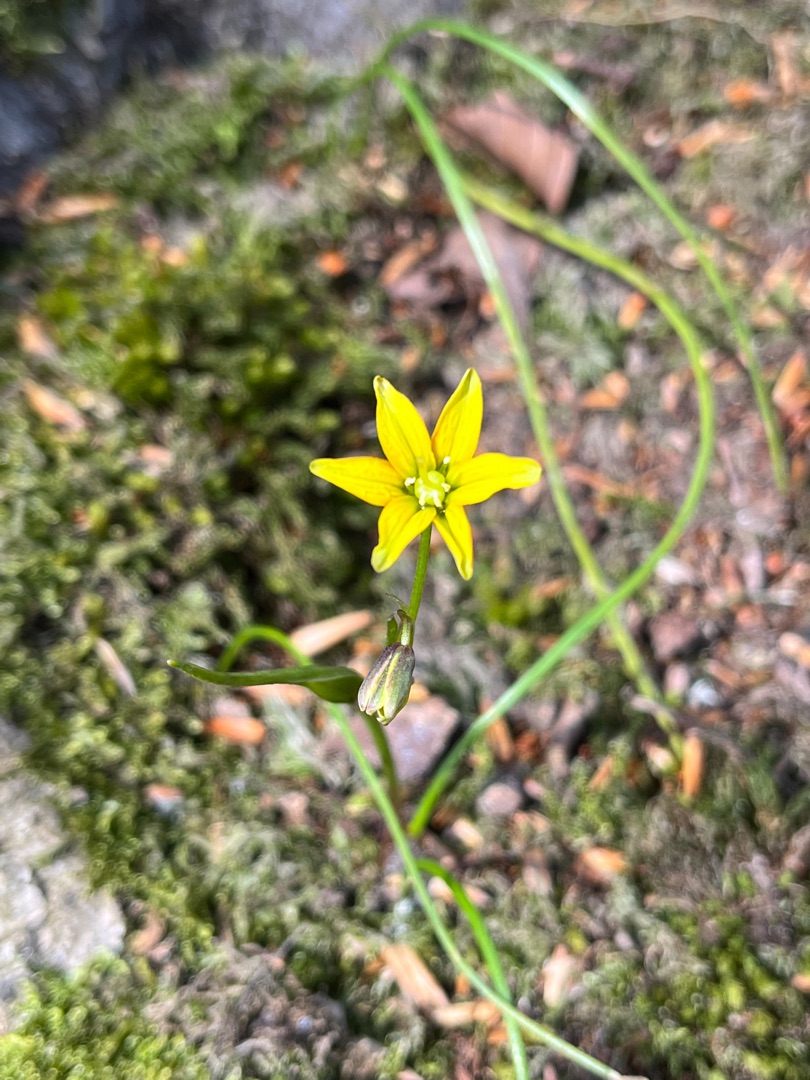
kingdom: Plantae
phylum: Tracheophyta
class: Liliopsida
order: Liliales
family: Liliaceae
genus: Gagea
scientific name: Gagea spathacea
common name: Hylster-guldstjerne
